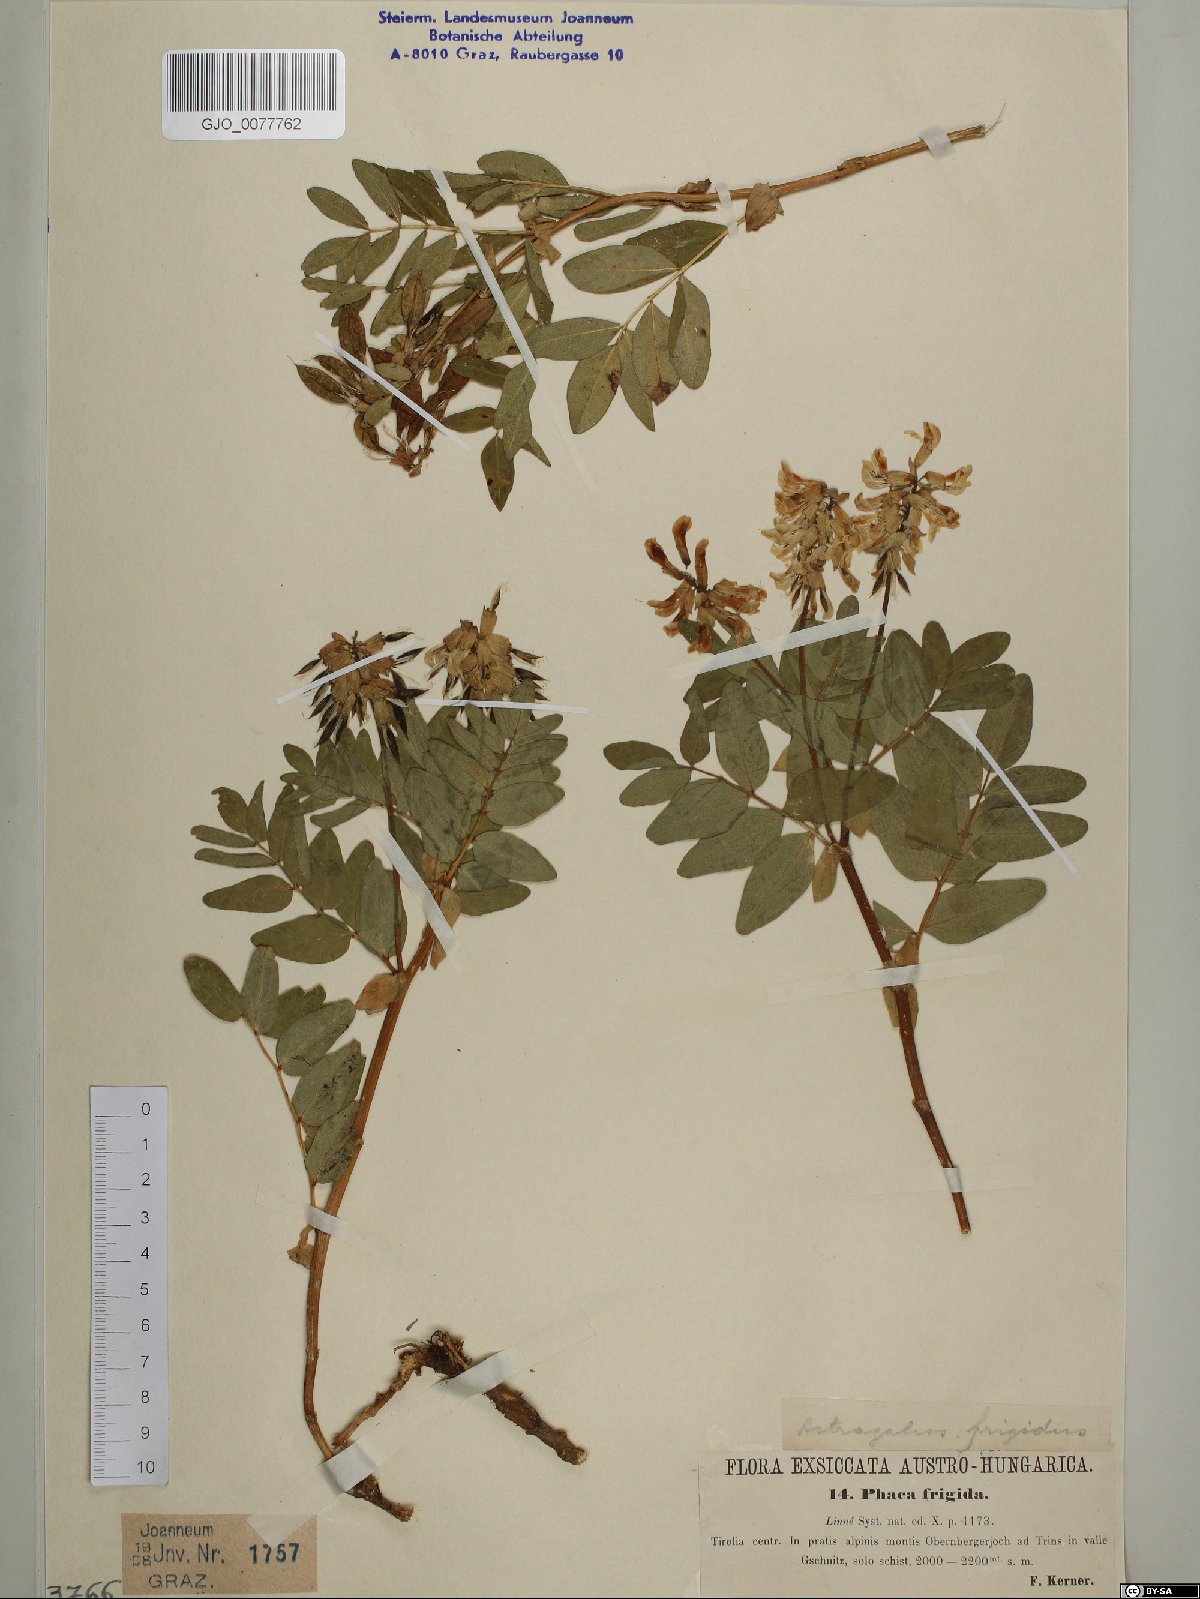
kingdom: Plantae
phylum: Tracheophyta
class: Magnoliopsida
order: Fabales
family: Fabaceae
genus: Astragalus
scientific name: Astragalus frigidus
